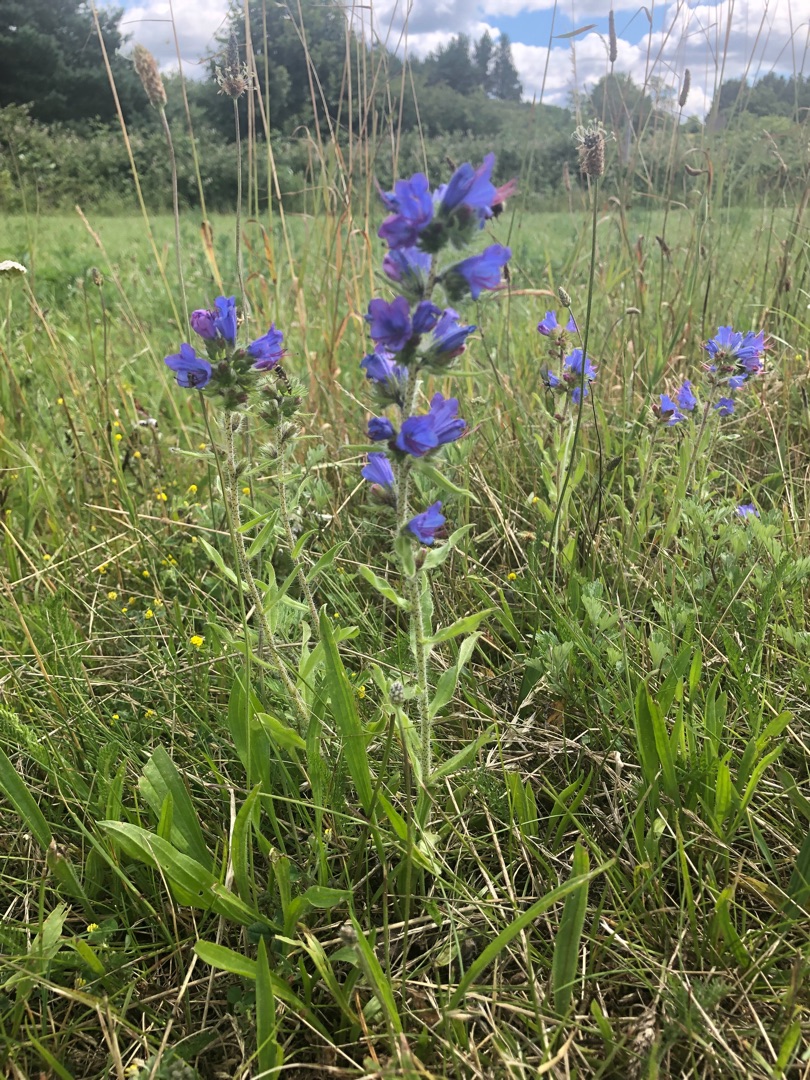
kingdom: Plantae
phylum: Tracheophyta
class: Magnoliopsida
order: Boraginales
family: Boraginaceae
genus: Echium
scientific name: Echium vulgare
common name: Slangehoved
